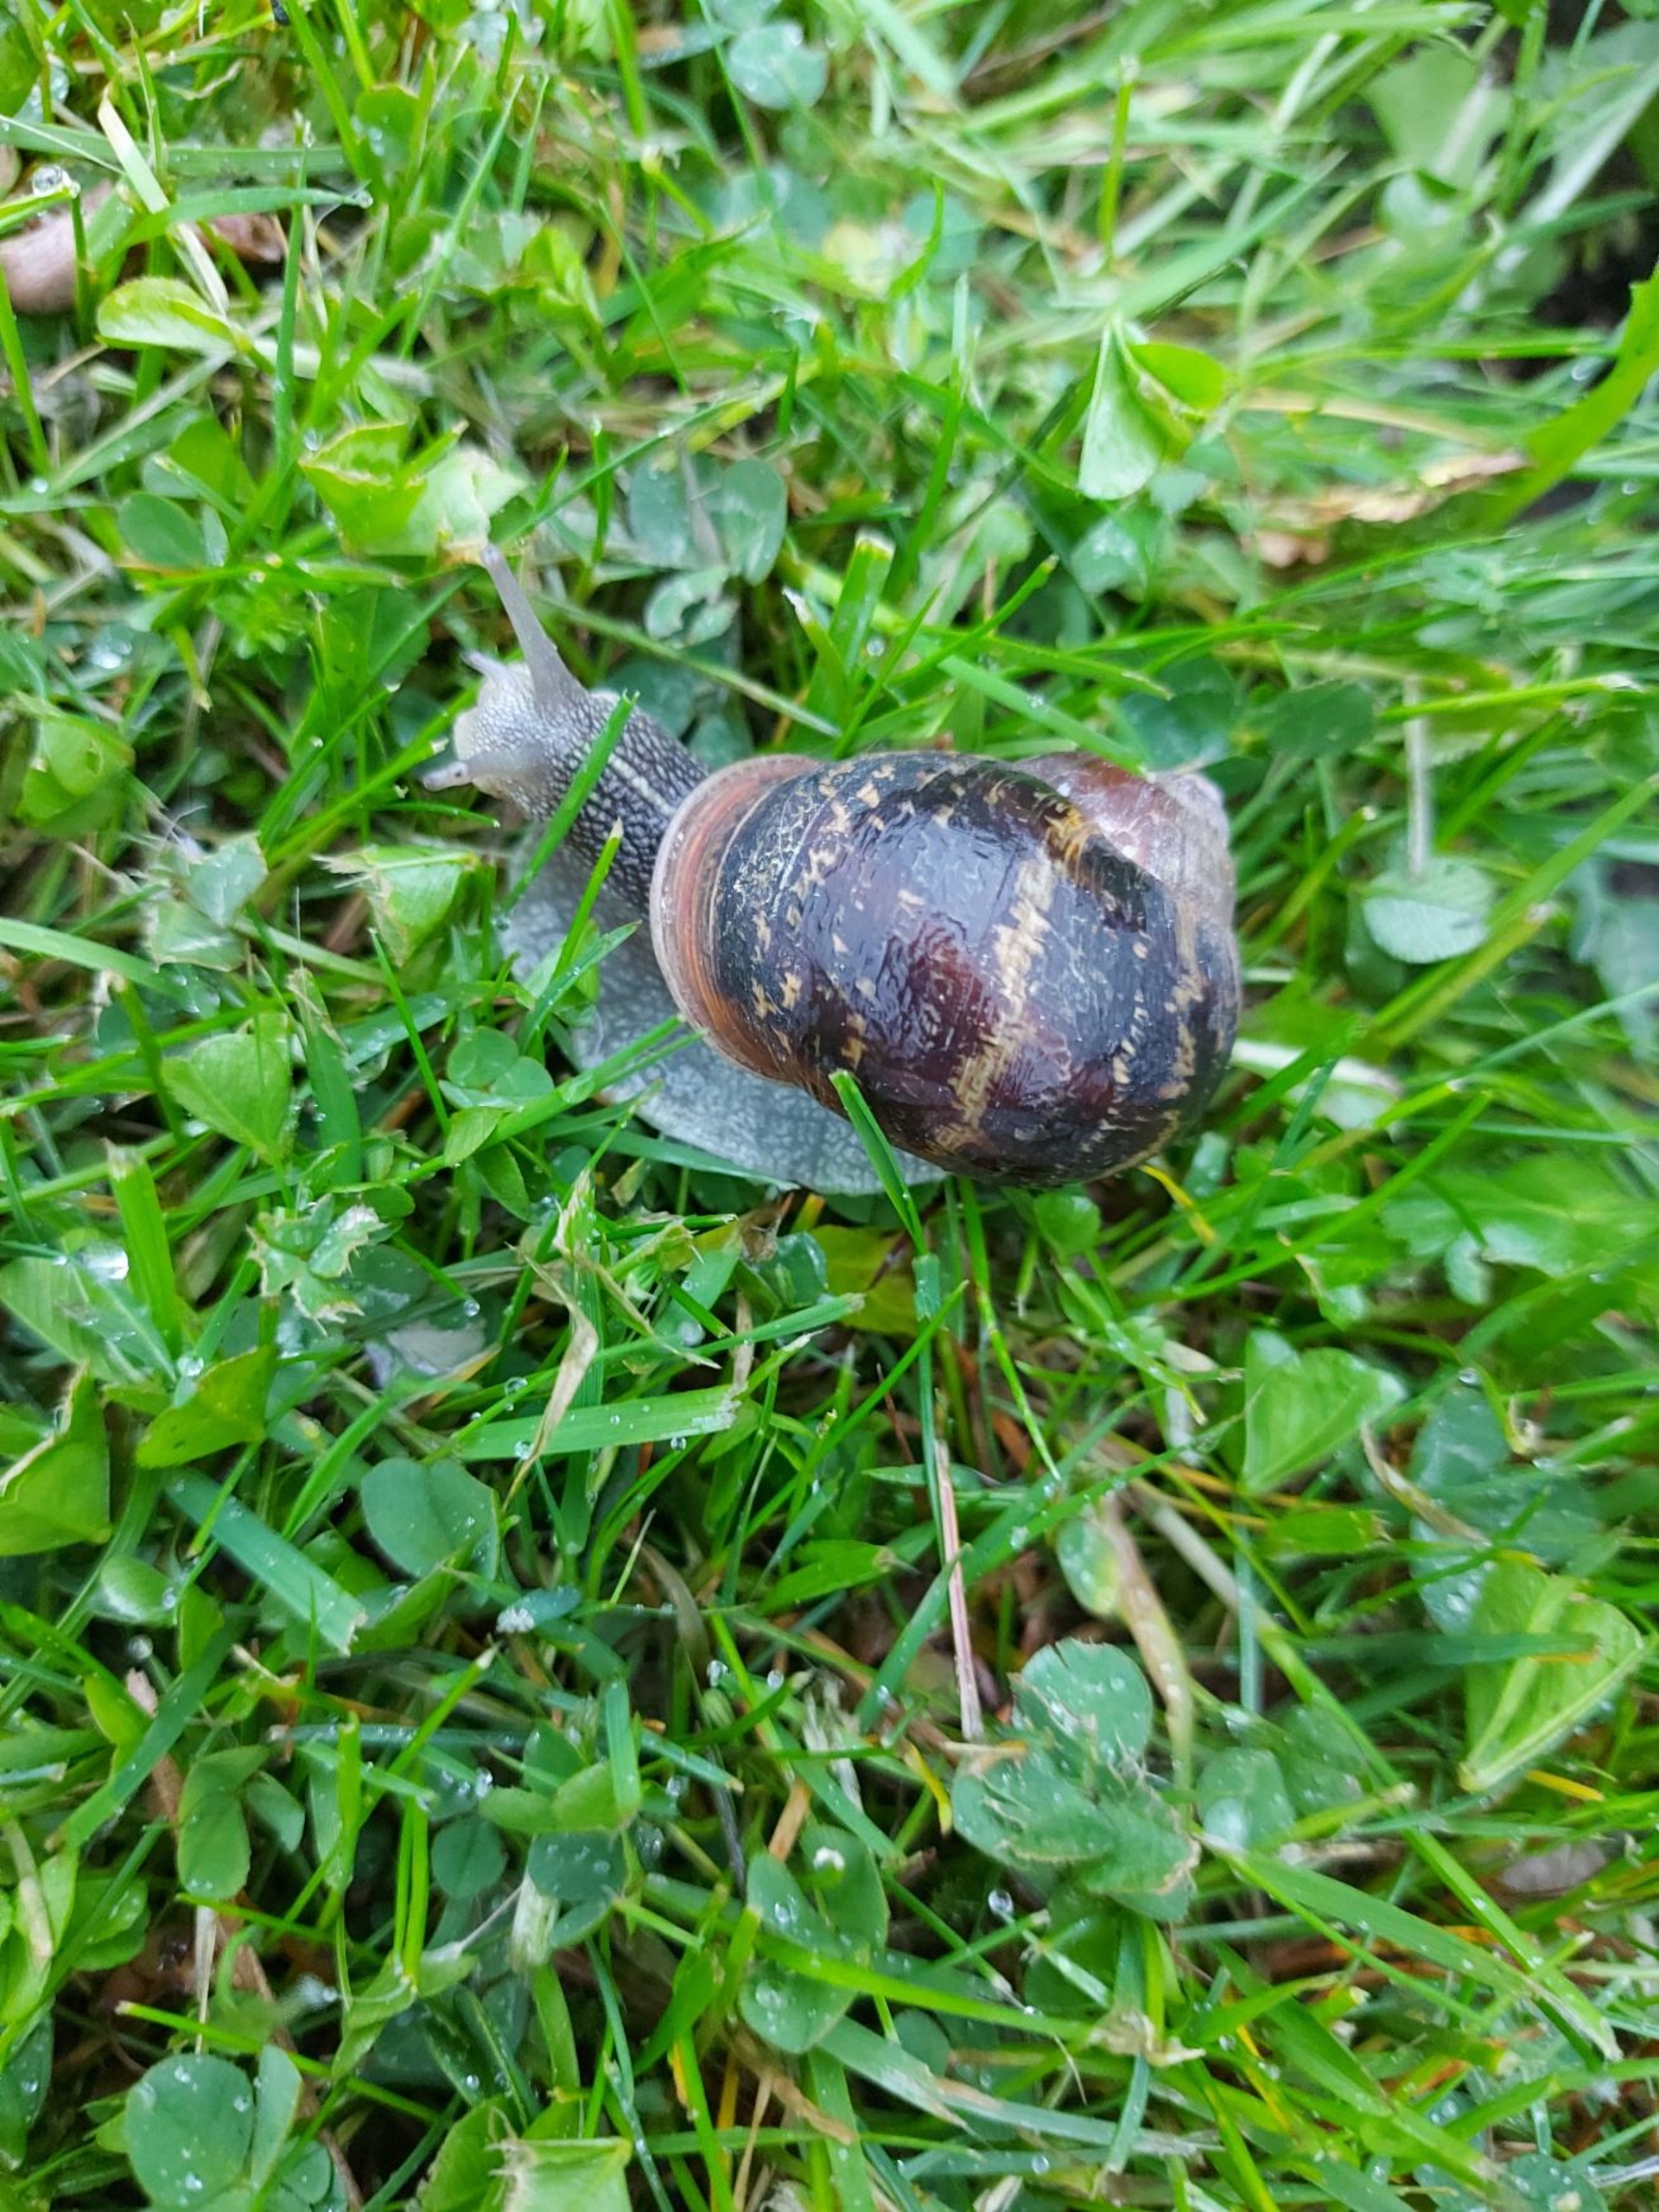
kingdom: Animalia
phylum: Mollusca
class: Gastropoda
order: Stylommatophora
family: Helicidae
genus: Cornu
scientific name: Cornu aspersum
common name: Plettet voldsnegl
